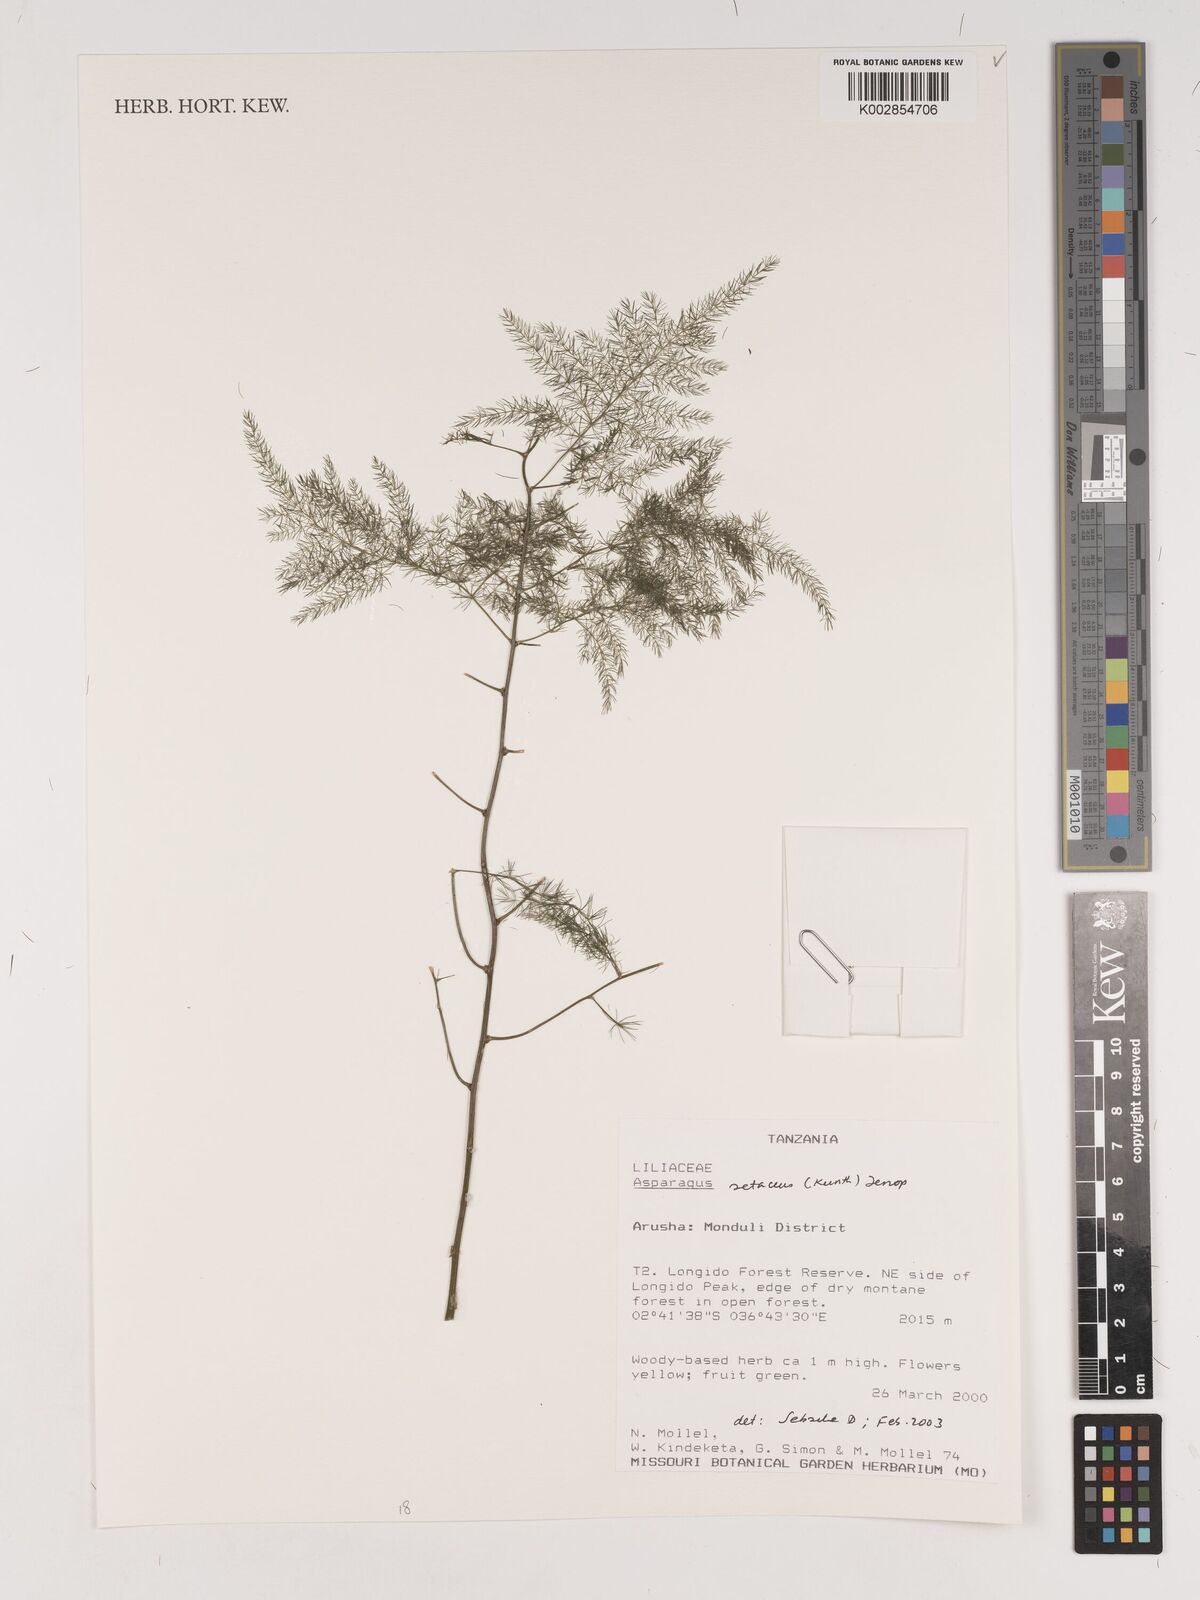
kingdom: Plantae
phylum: Tracheophyta
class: Liliopsida
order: Asparagales
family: Asparagaceae
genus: Asparagus
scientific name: Asparagus setaceus
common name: Common asparagus fern
